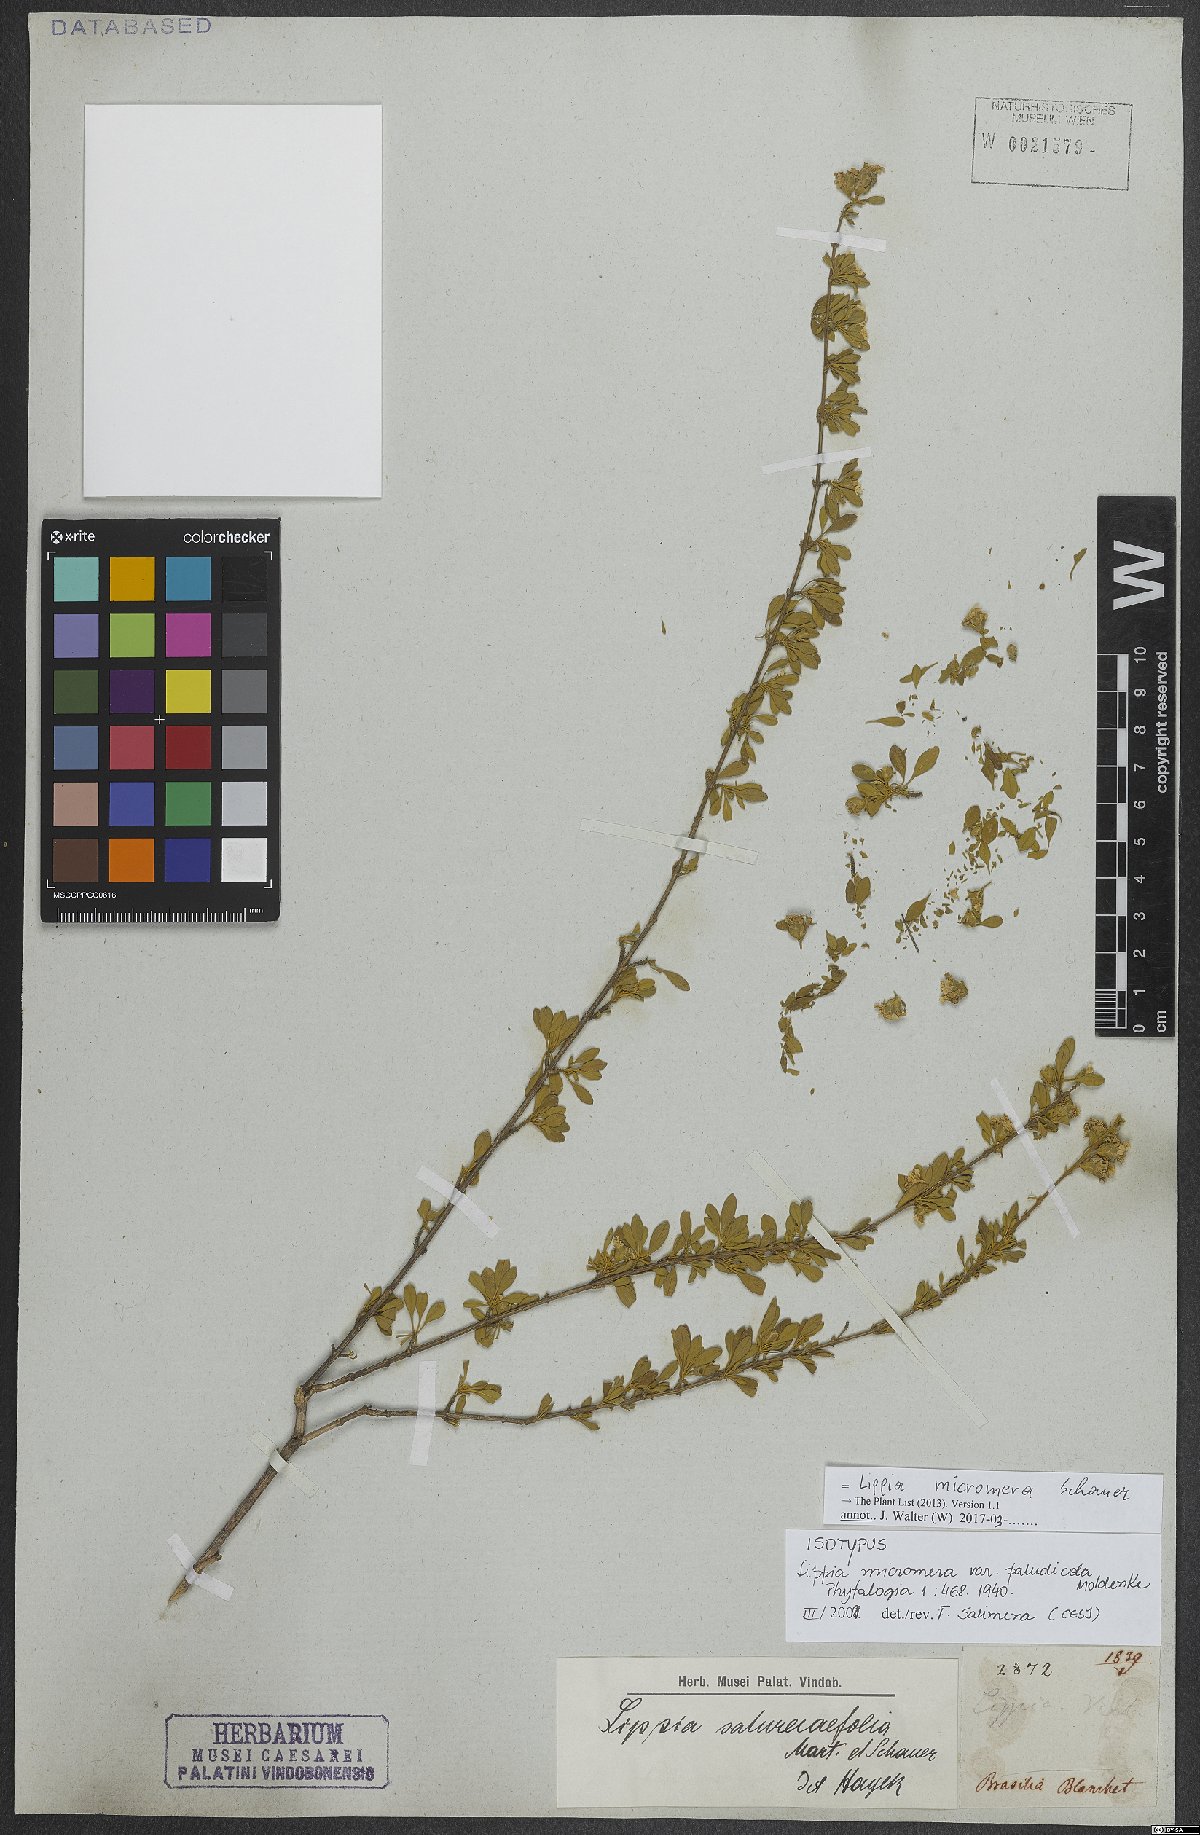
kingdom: Plantae
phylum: Tracheophyta
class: Magnoliopsida
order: Lamiales
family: Verbenaceae
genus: Lippia
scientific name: Lippia micromera
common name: Puerto rican oregano
